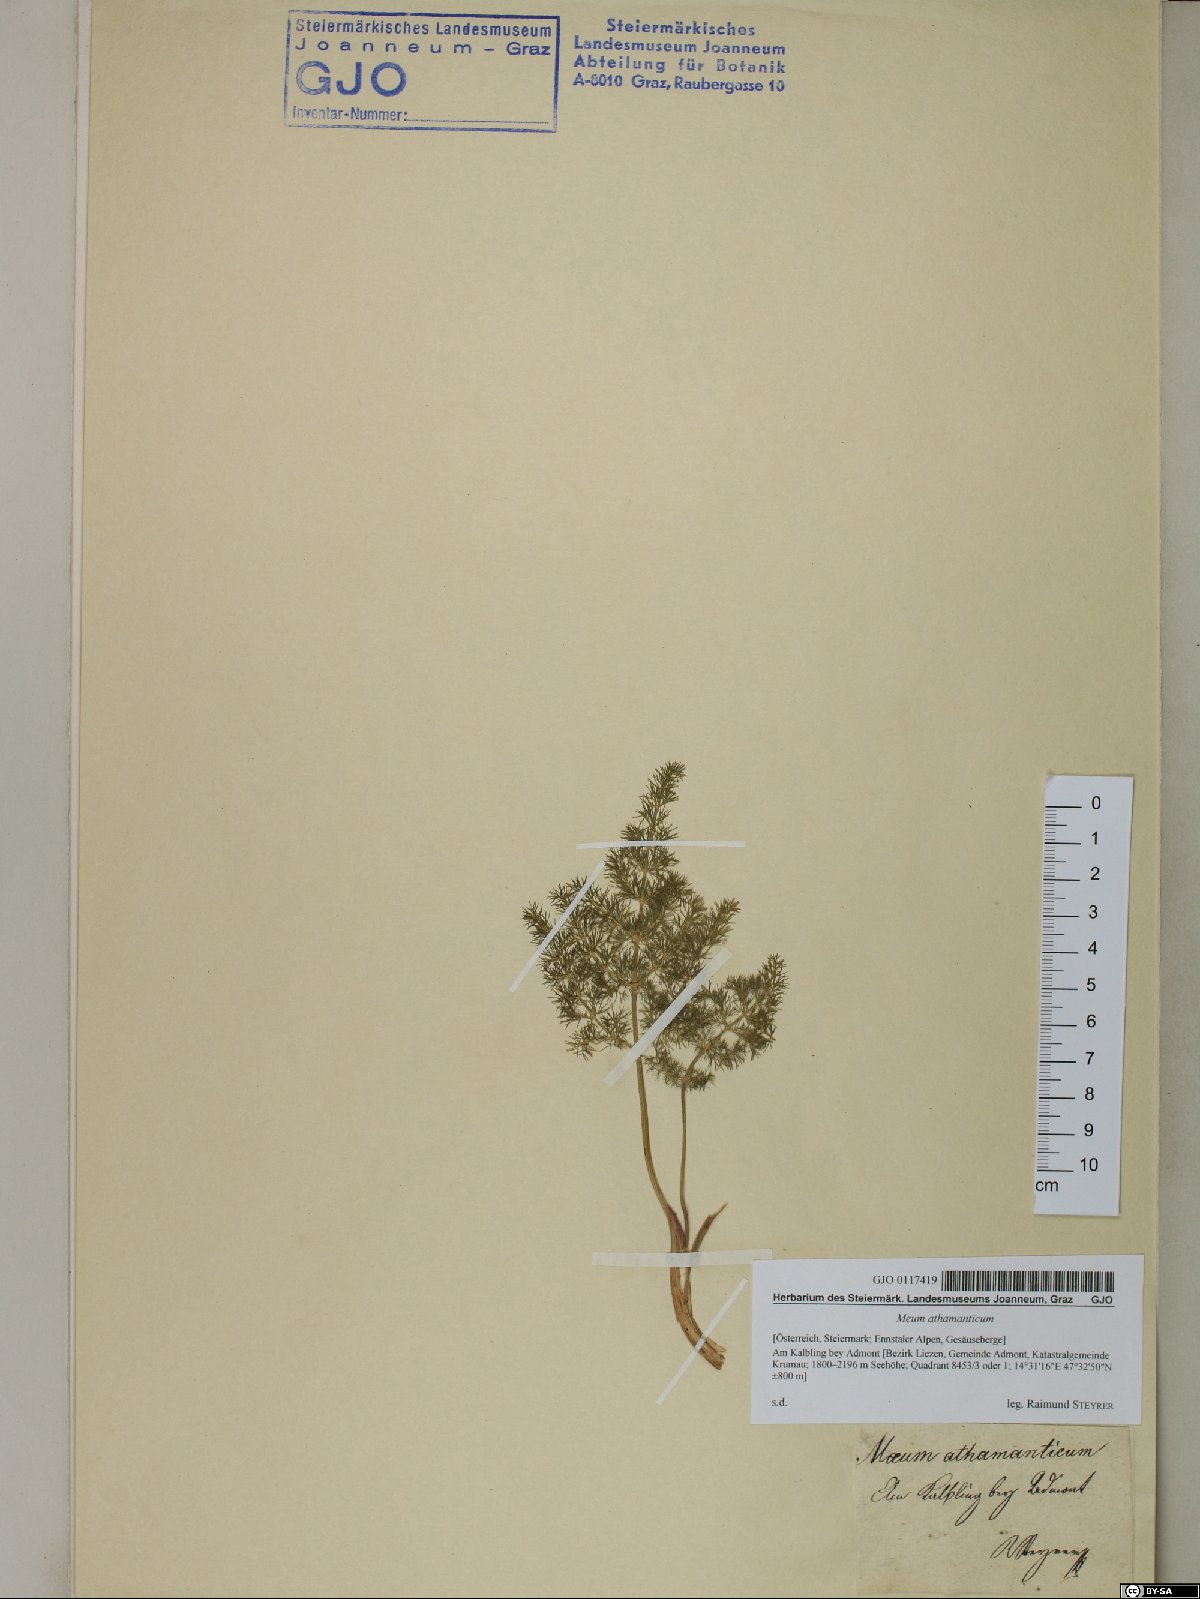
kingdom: Plantae
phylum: Tracheophyta
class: Magnoliopsida
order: Apiales
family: Apiaceae
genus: Meum
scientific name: Meum athamanticum
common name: Spignel
